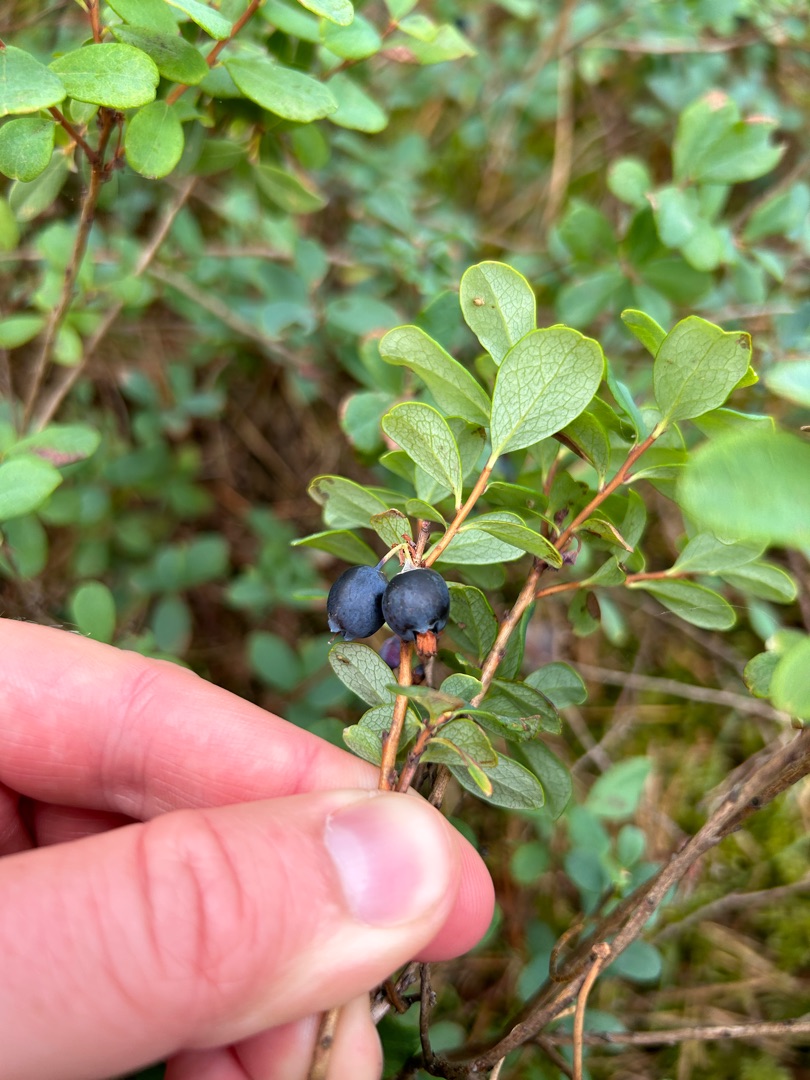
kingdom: Plantae
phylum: Tracheophyta
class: Magnoliopsida
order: Ericales
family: Ericaceae
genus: Vaccinium
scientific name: Vaccinium uliginosum
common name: Mose-bølle
